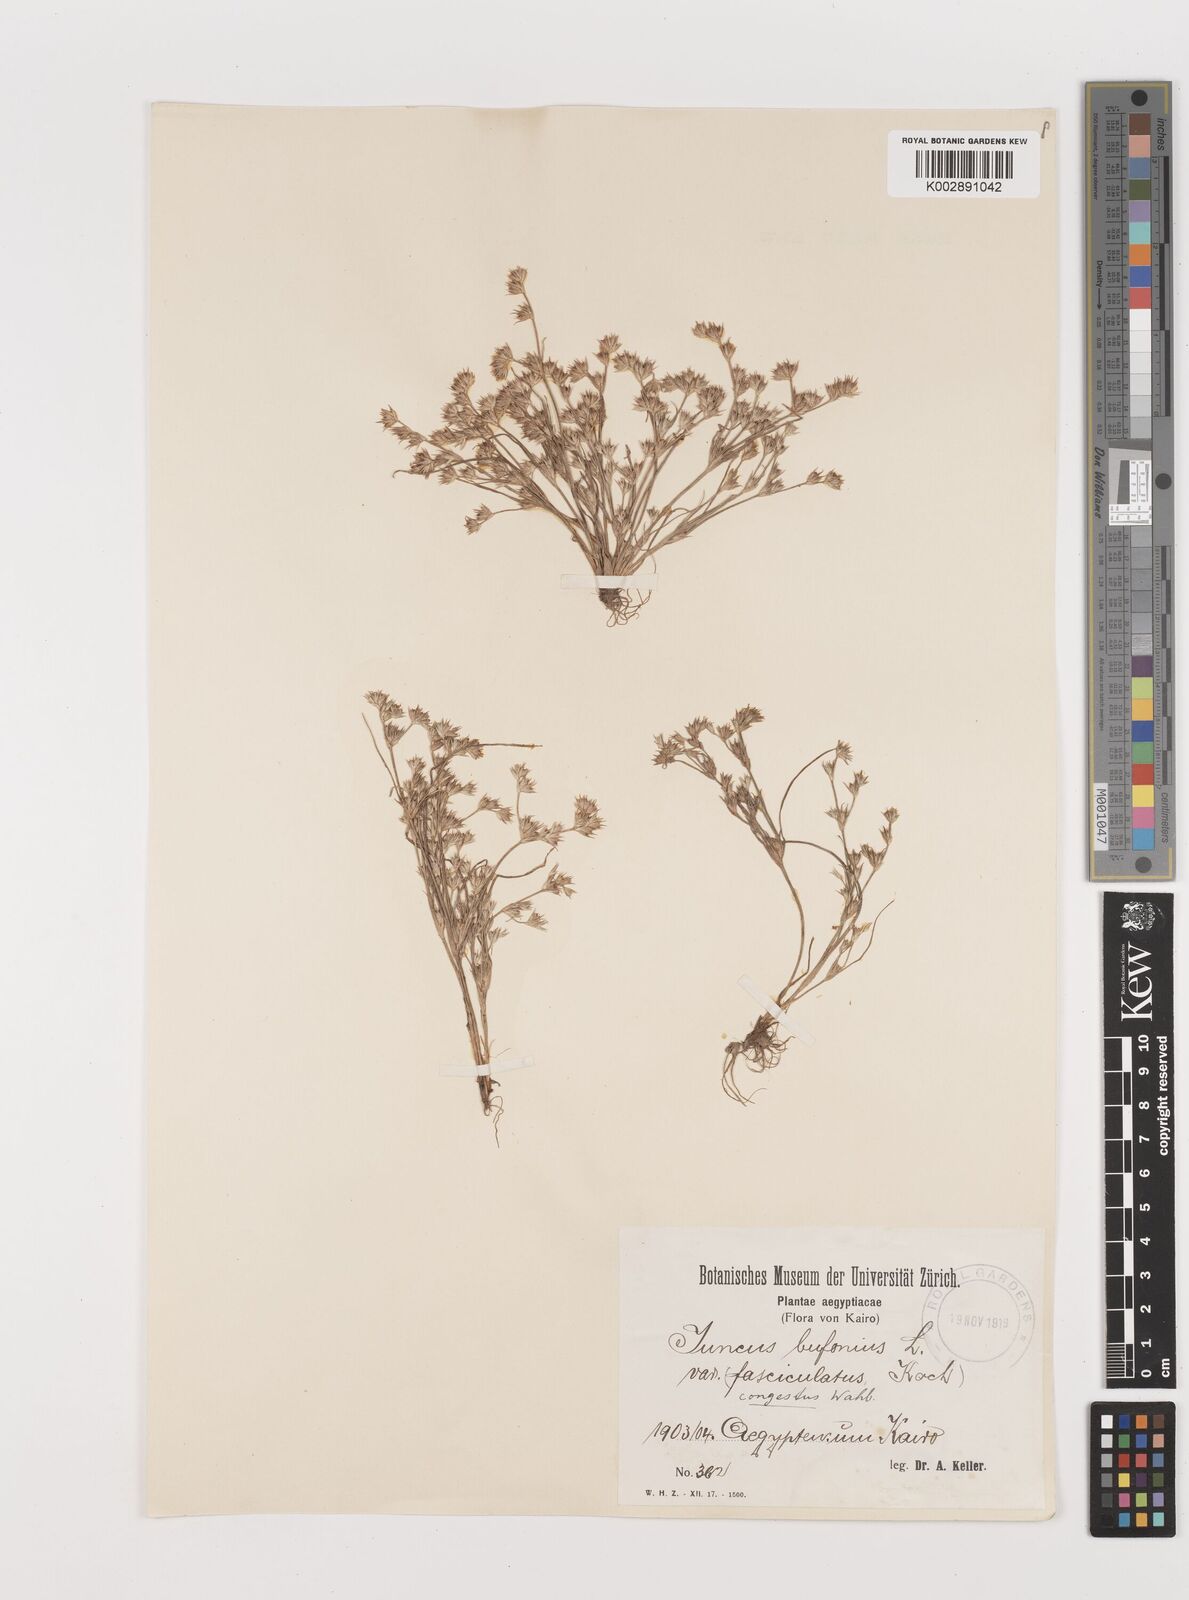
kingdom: Plantae
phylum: Tracheophyta
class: Liliopsida
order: Poales
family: Juncaceae
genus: Juncus
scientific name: Juncus bufonius
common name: Toad rush
